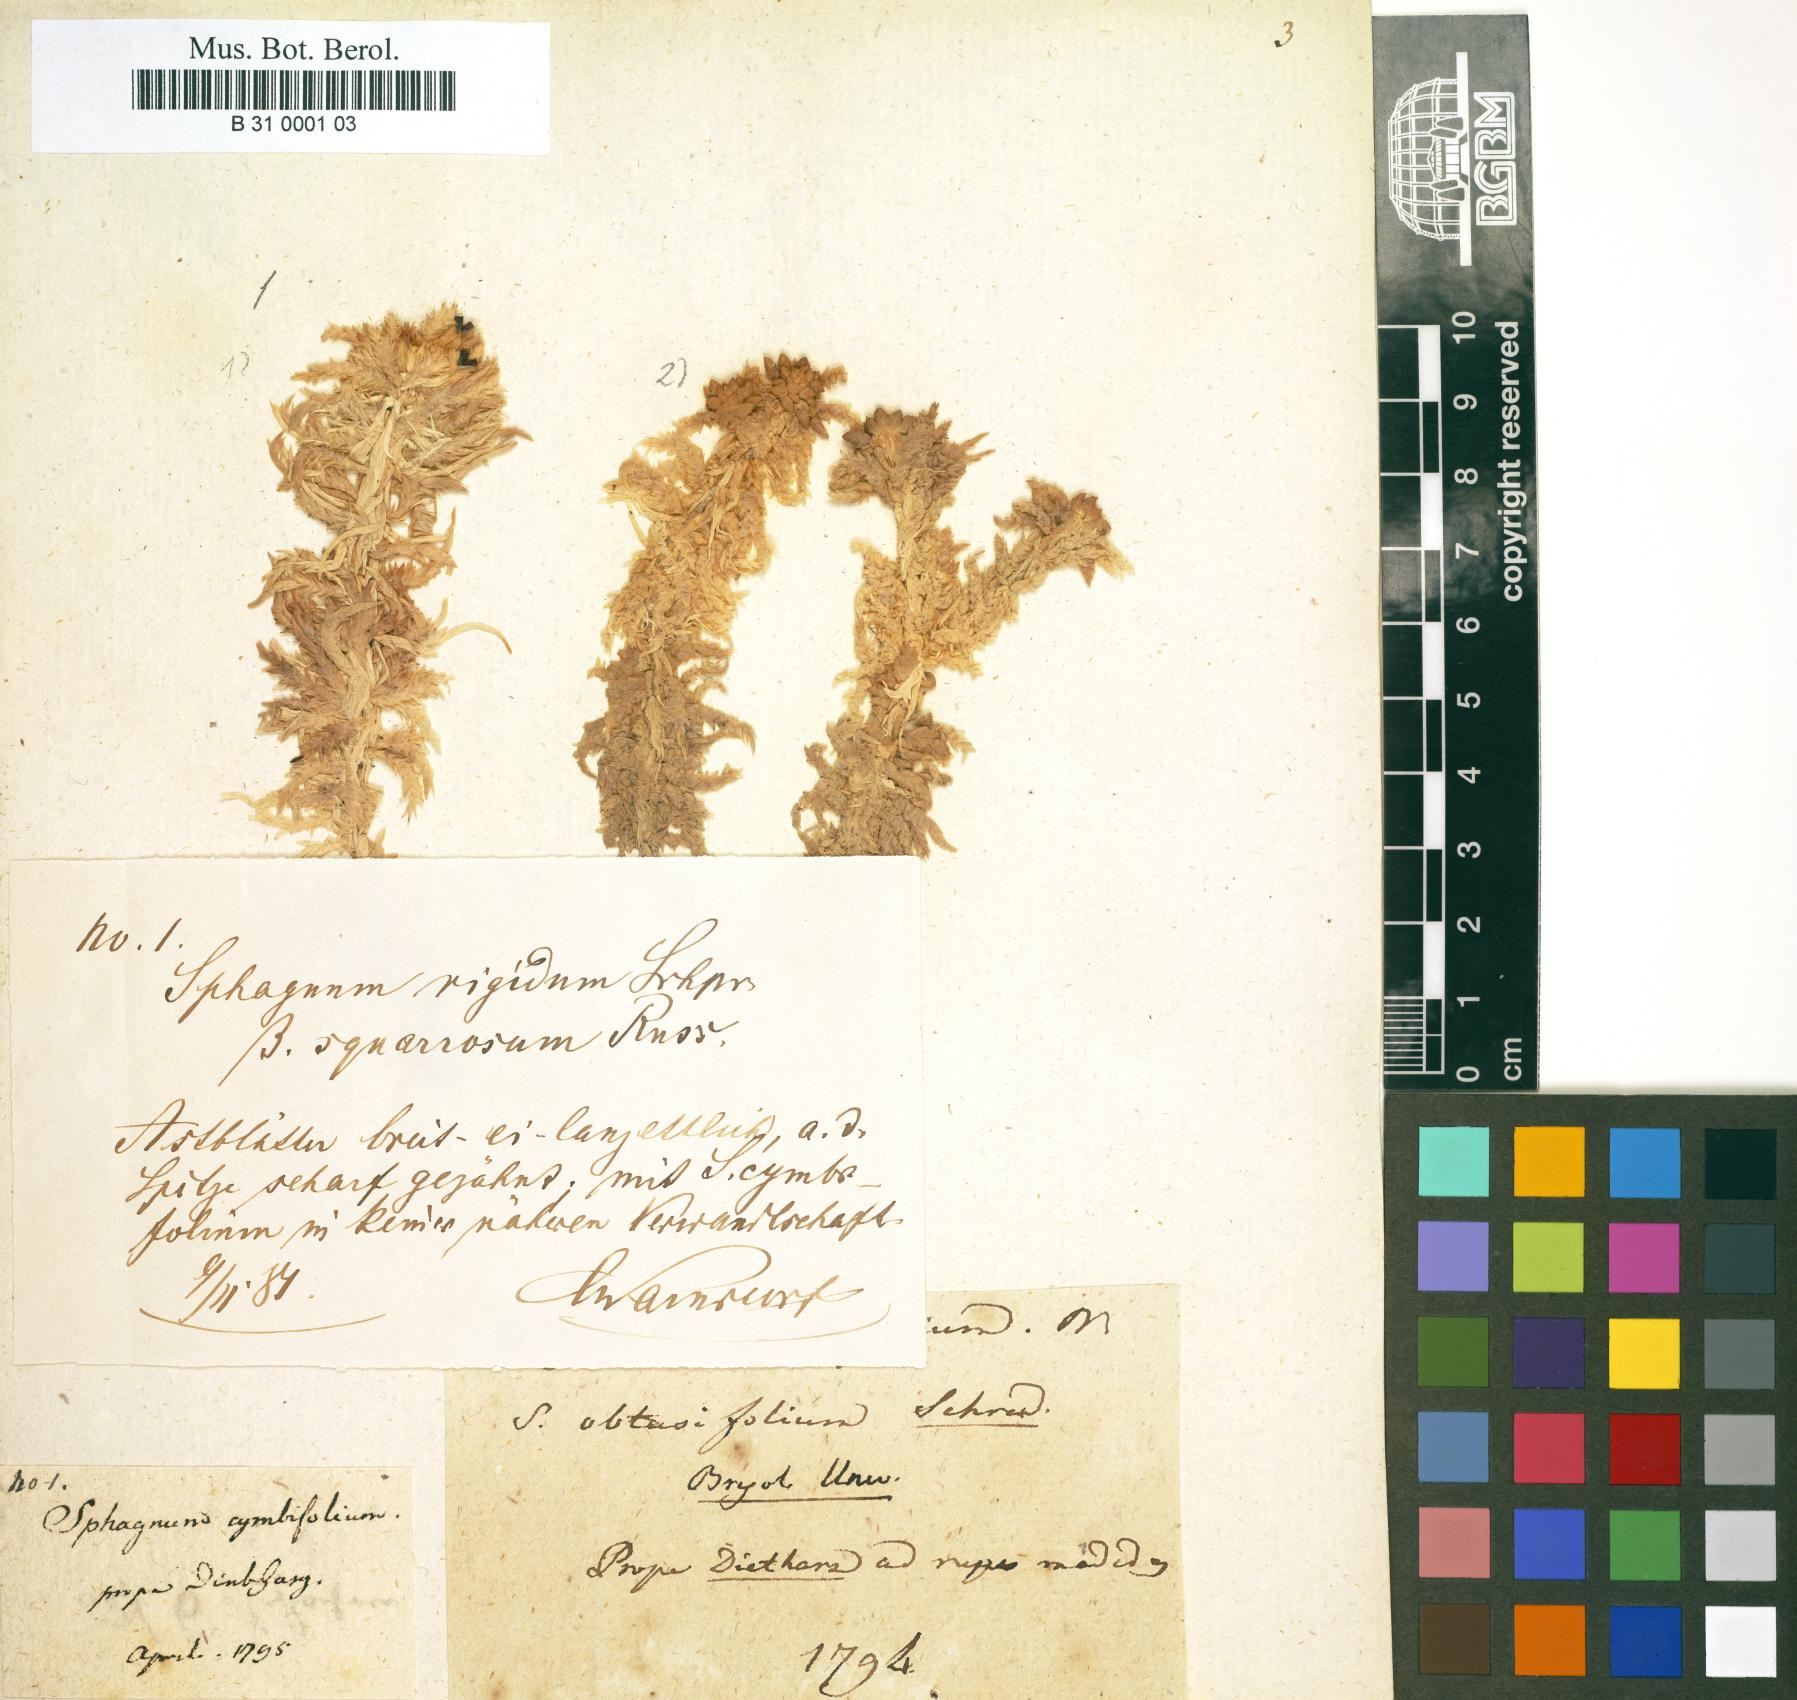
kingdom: Plantae
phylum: Bryophyta
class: Sphagnopsida
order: Sphagnales
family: Sphagnaceae
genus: Sphagnum
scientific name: Sphagnum palustre
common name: Blunt-leaved bog-moss
